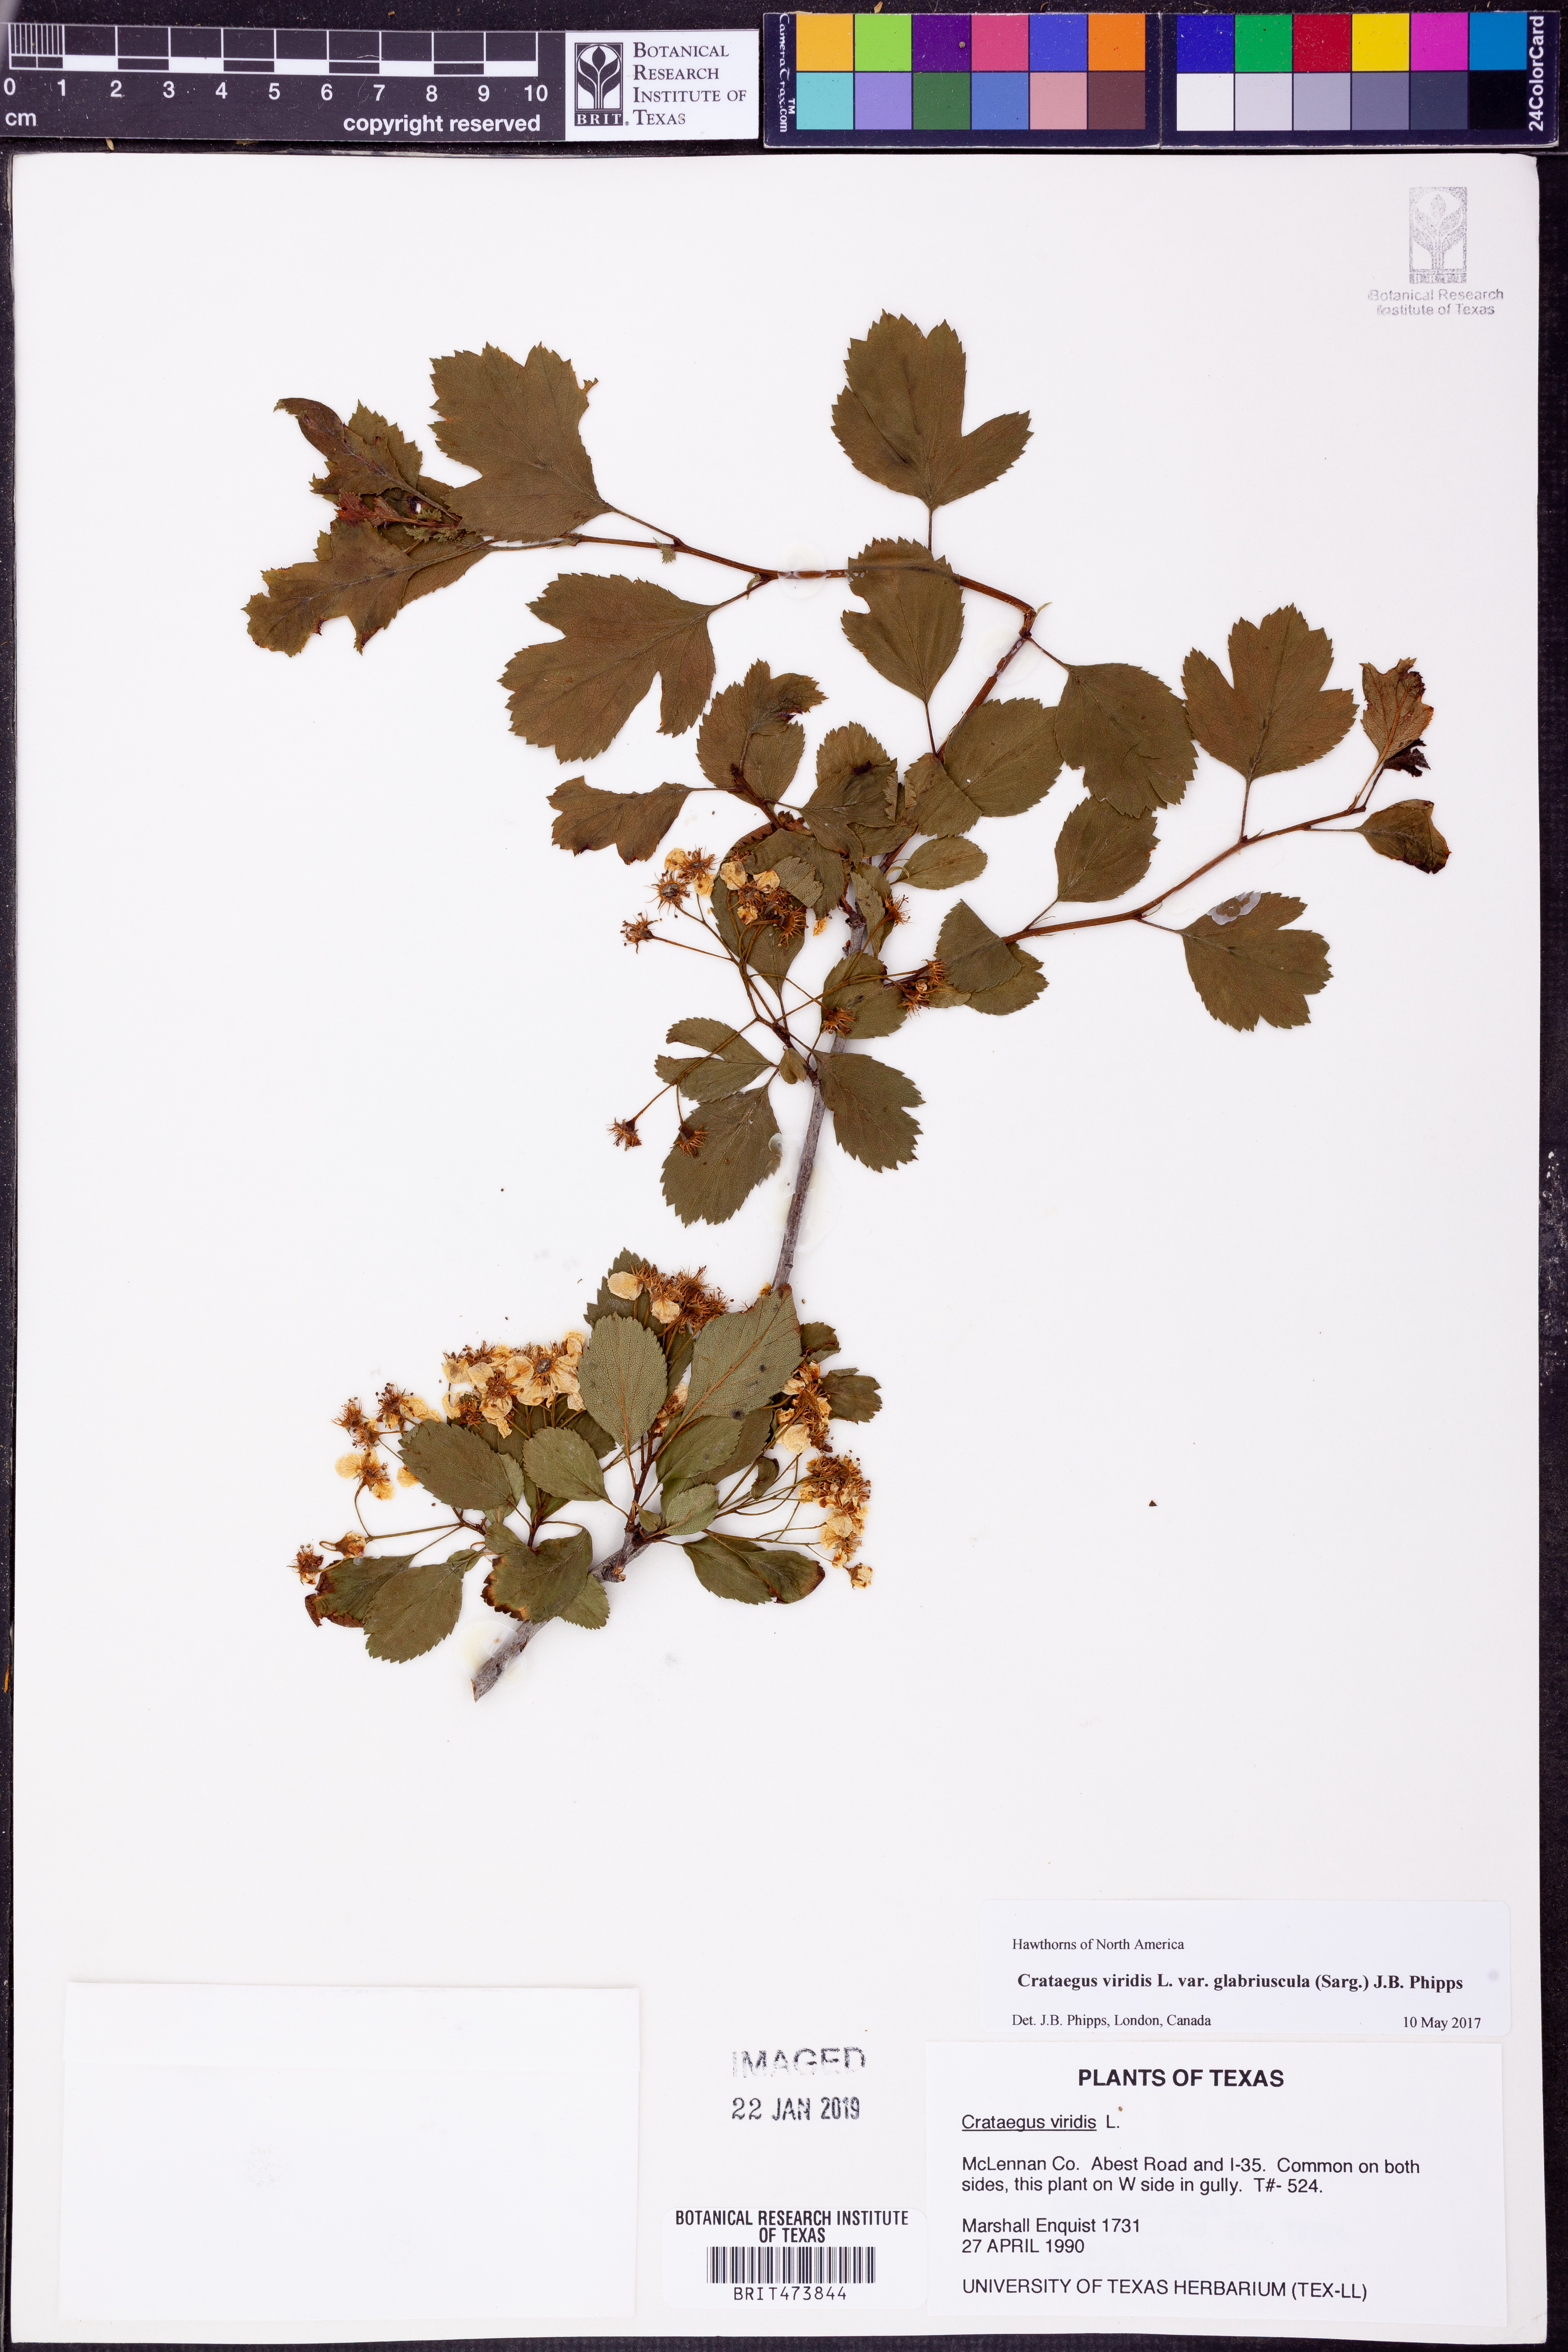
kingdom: Plantae
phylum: Tracheophyta
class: Magnoliopsida
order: Rosales
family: Rosaceae
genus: Crataegus
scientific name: Crataegus viridis
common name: Southernthorn
